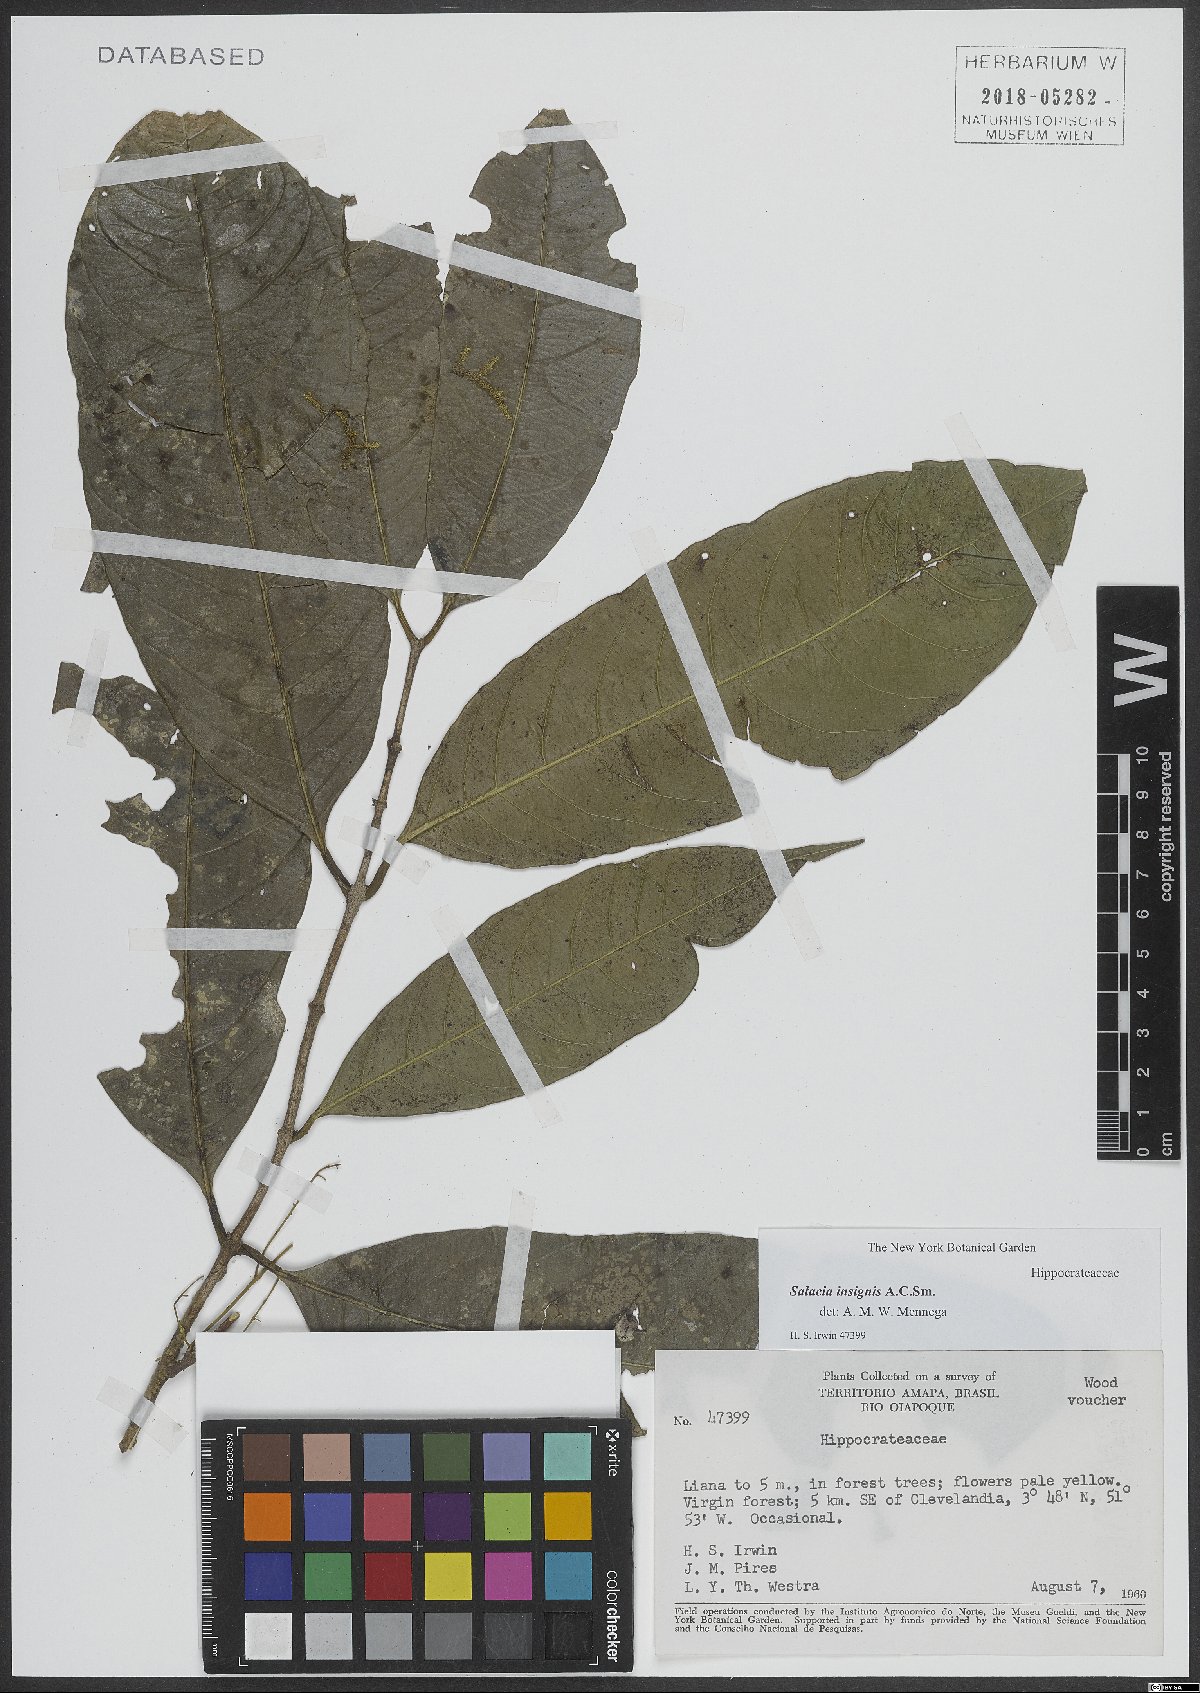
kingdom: Plantae
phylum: Tracheophyta
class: Magnoliopsida
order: Celastrales
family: Celastraceae
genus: Salacia
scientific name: Salacia insignis
